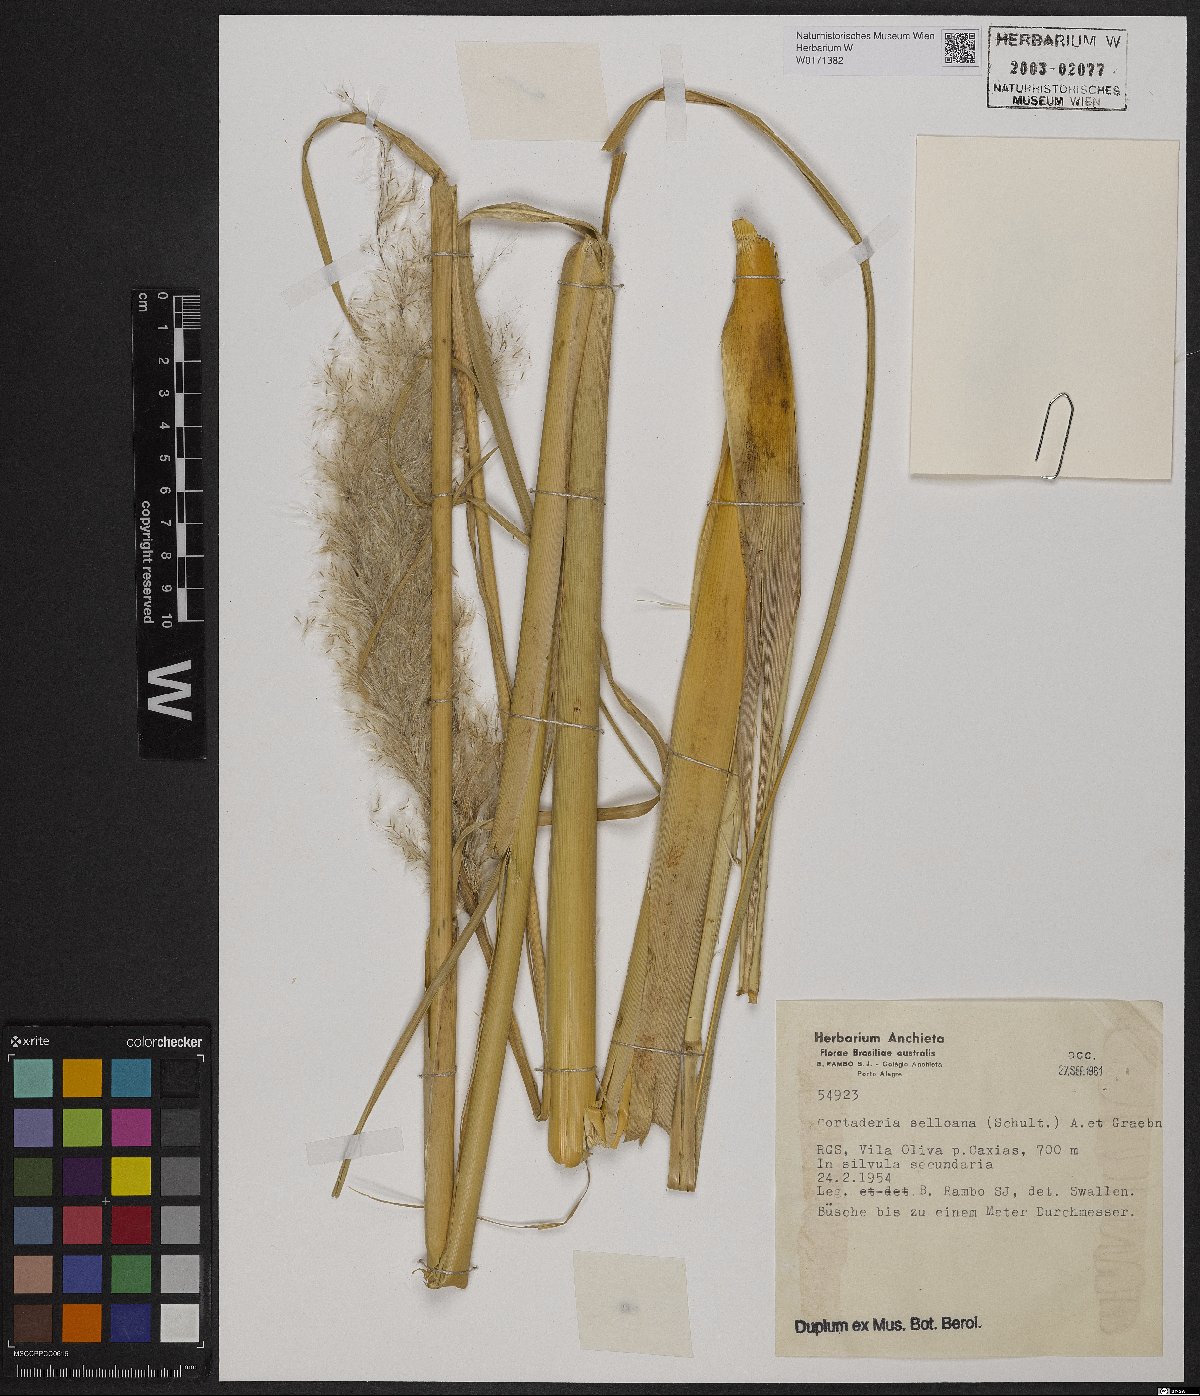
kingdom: Plantae
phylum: Tracheophyta
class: Liliopsida
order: Poales
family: Poaceae
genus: Cortaderia
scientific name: Cortaderia selloana
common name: Uruguayan pampas grass
